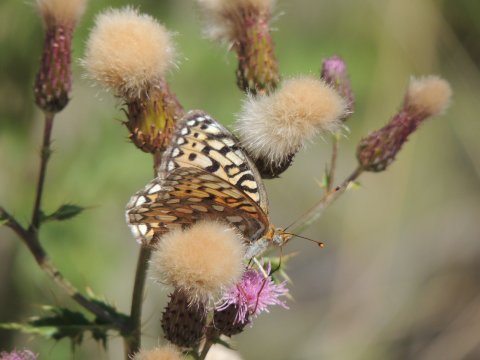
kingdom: Animalia
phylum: Arthropoda
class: Insecta
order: Lepidoptera
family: Nymphalidae
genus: Speyeria
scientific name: Speyeria callippe
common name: Callippe Fritillary
